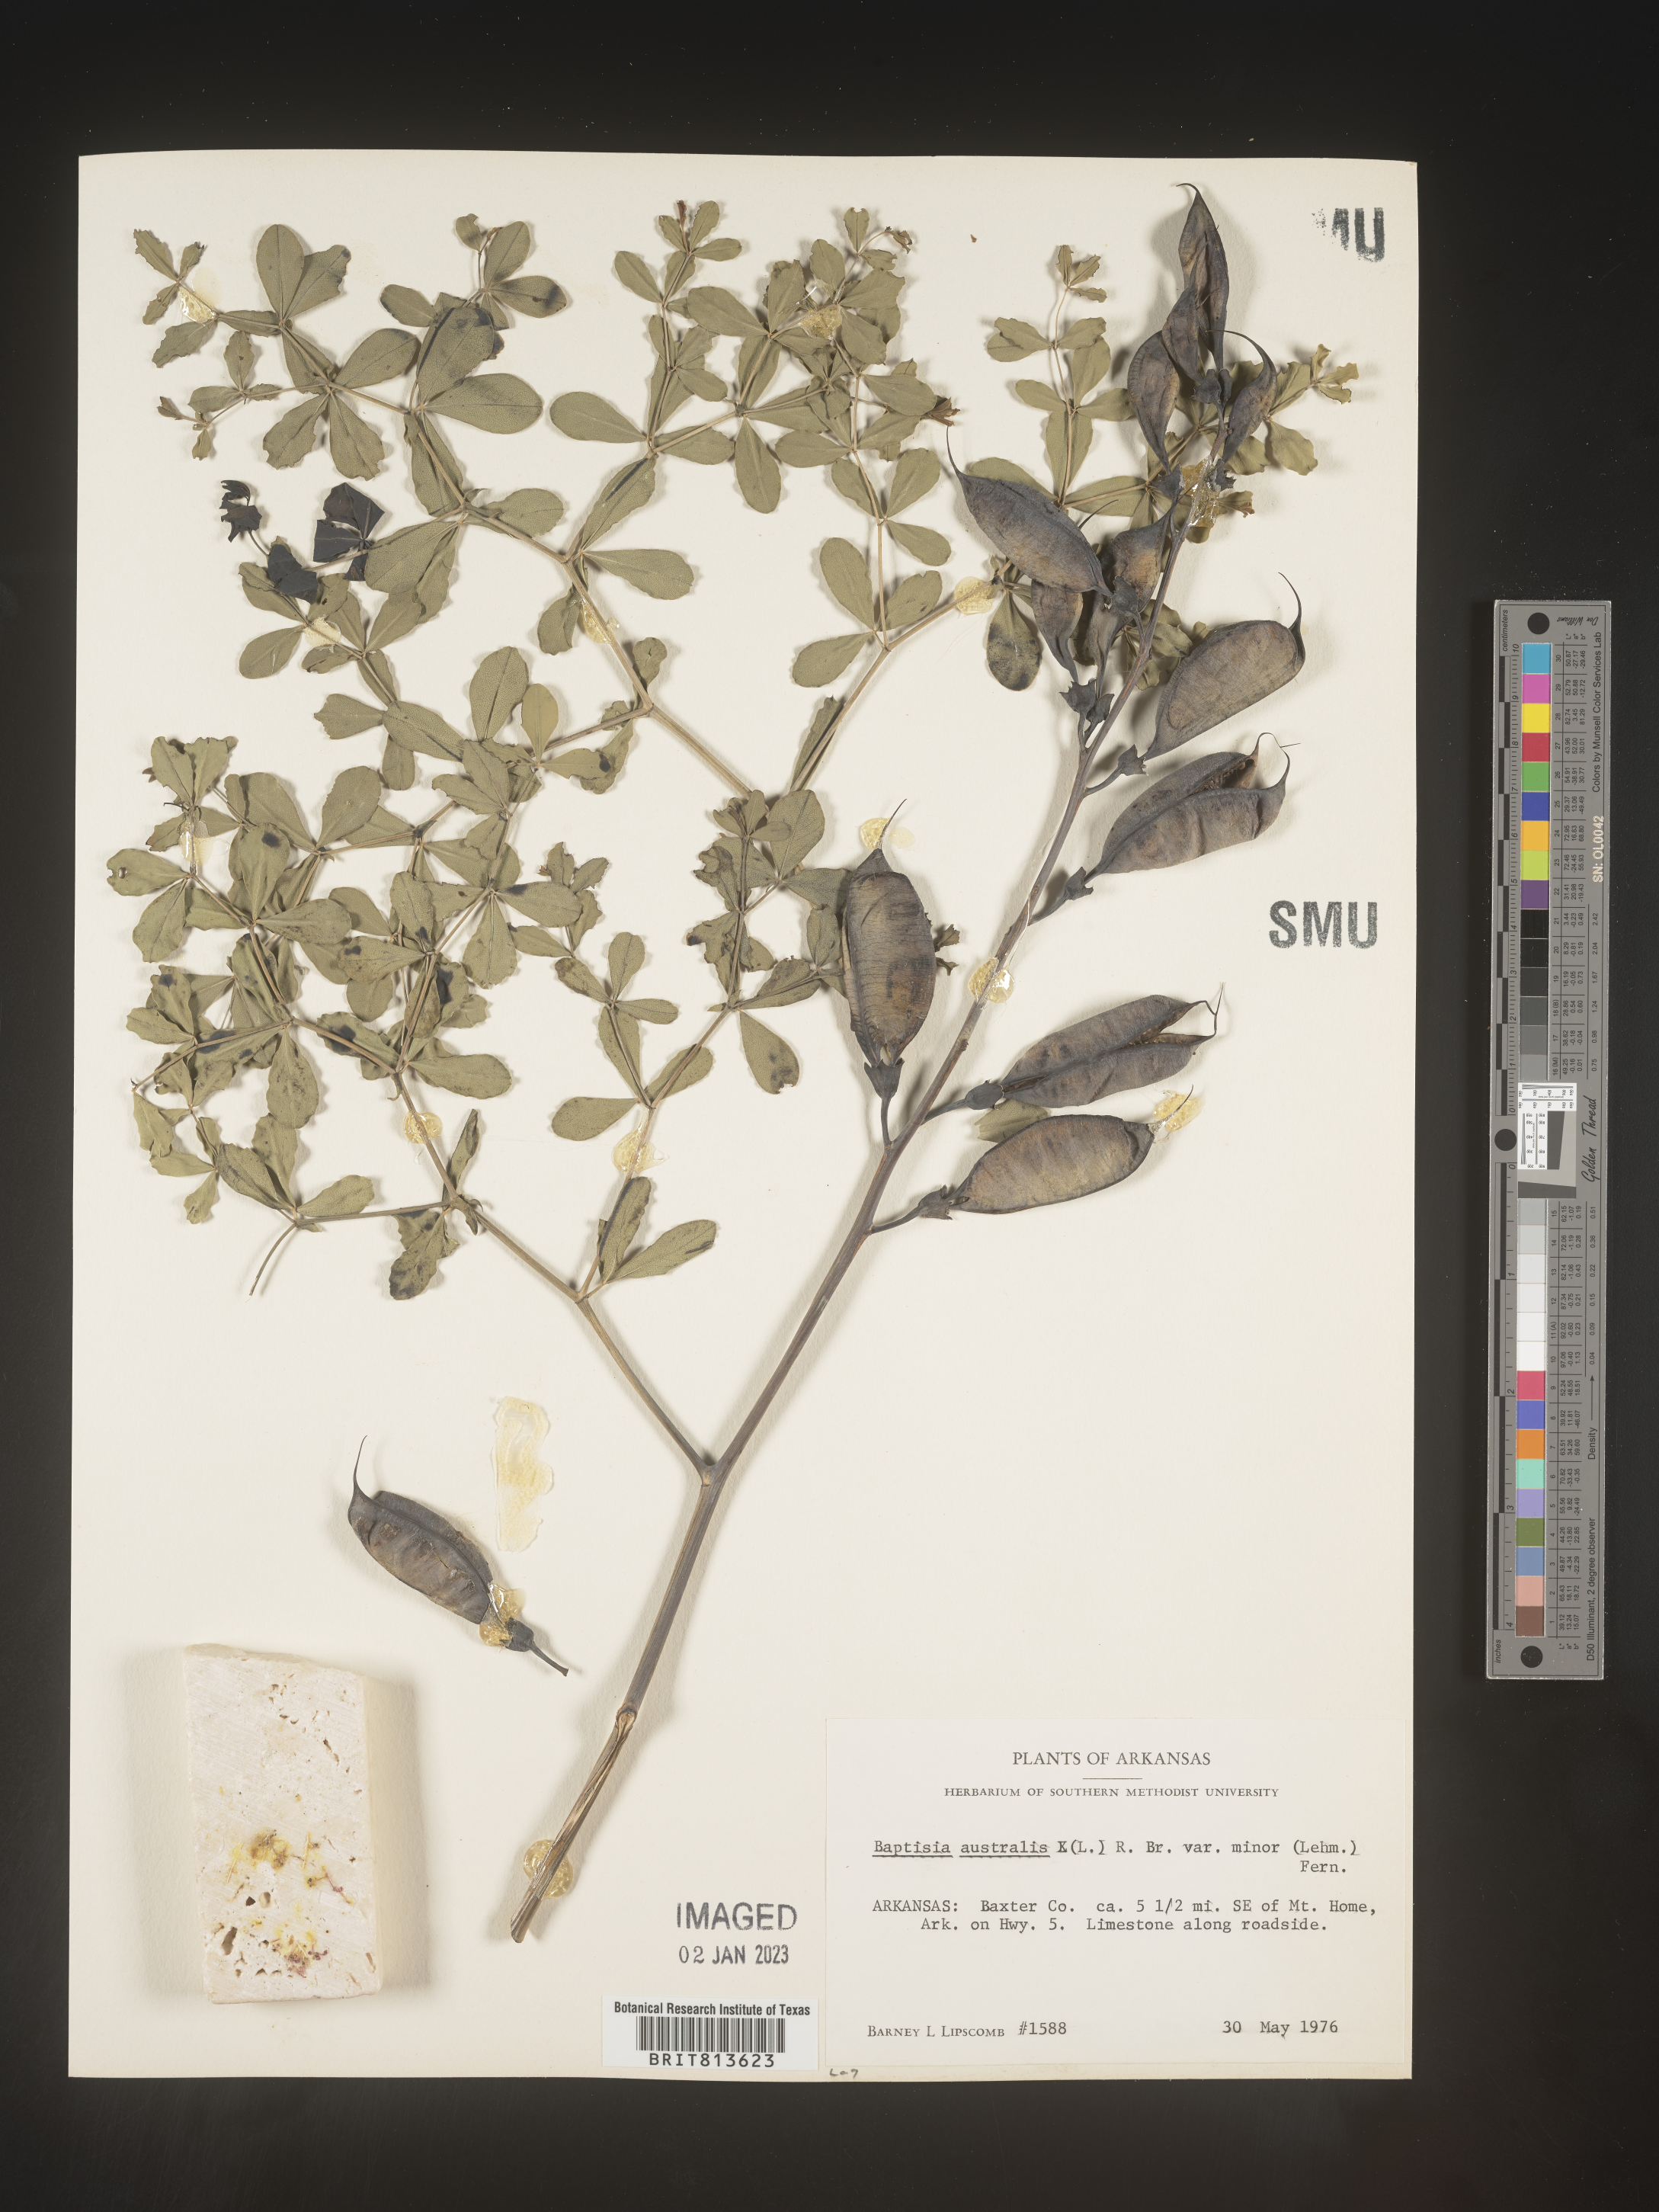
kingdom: Plantae
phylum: Tracheophyta
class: Magnoliopsida
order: Fabales
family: Fabaceae
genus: Baptisia
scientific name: Baptisia australis
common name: Blue false indigo
